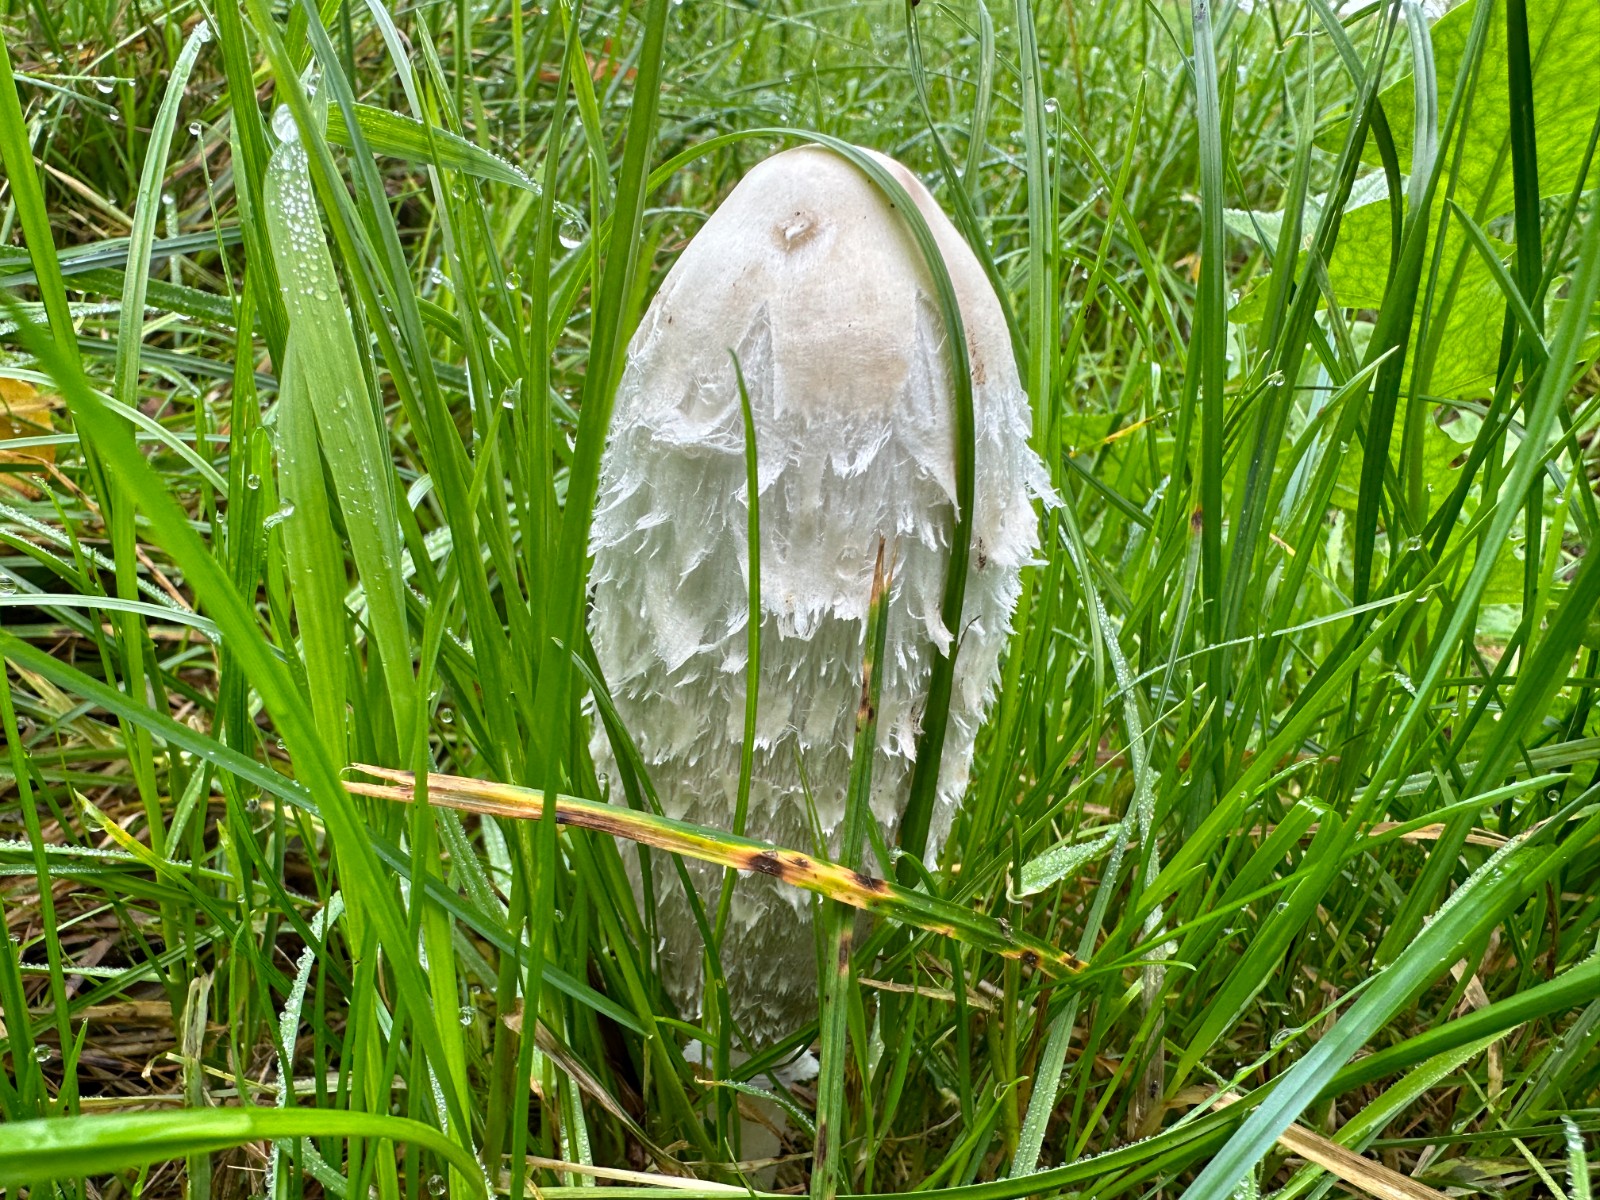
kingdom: Fungi
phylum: Basidiomycota
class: Agaricomycetes
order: Agaricales
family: Agaricaceae
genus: Coprinus
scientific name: Coprinus comatus
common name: stor parykhat
